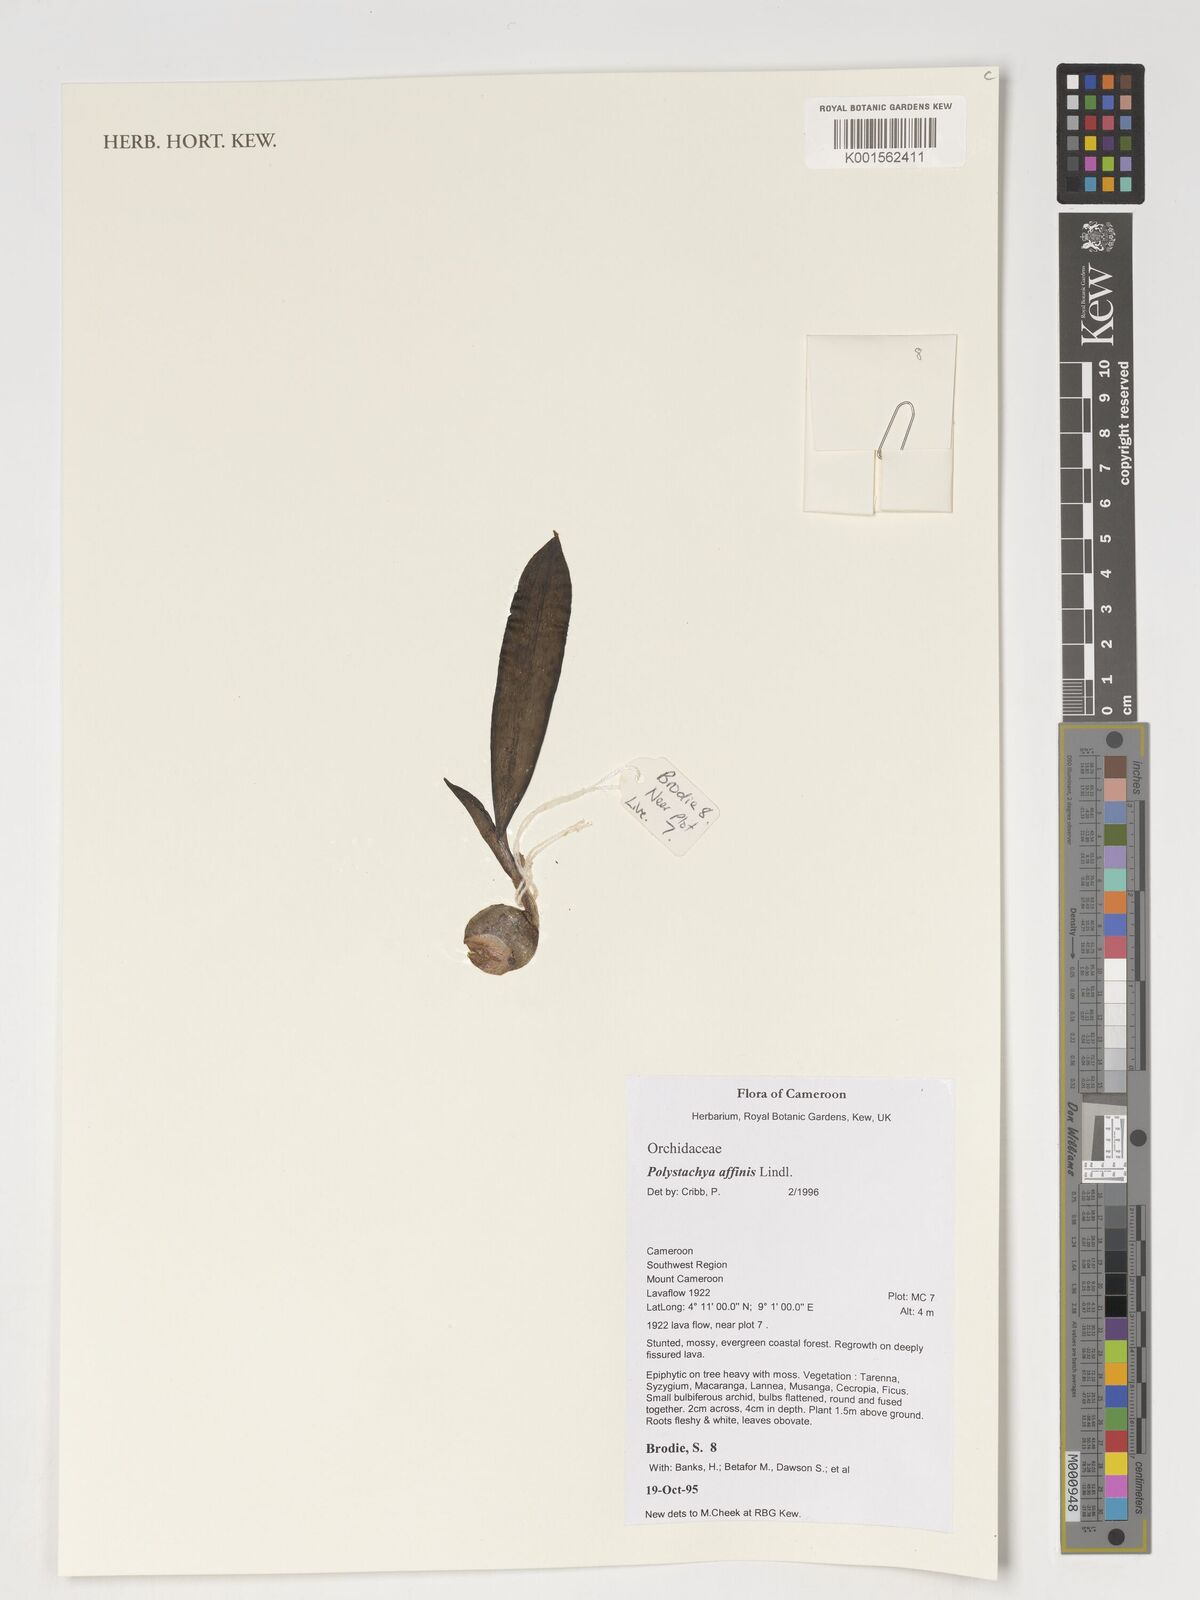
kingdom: Plantae
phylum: Tracheophyta
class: Liliopsida
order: Asparagales
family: Orchidaceae
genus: Polystachya
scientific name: Polystachya affinis
